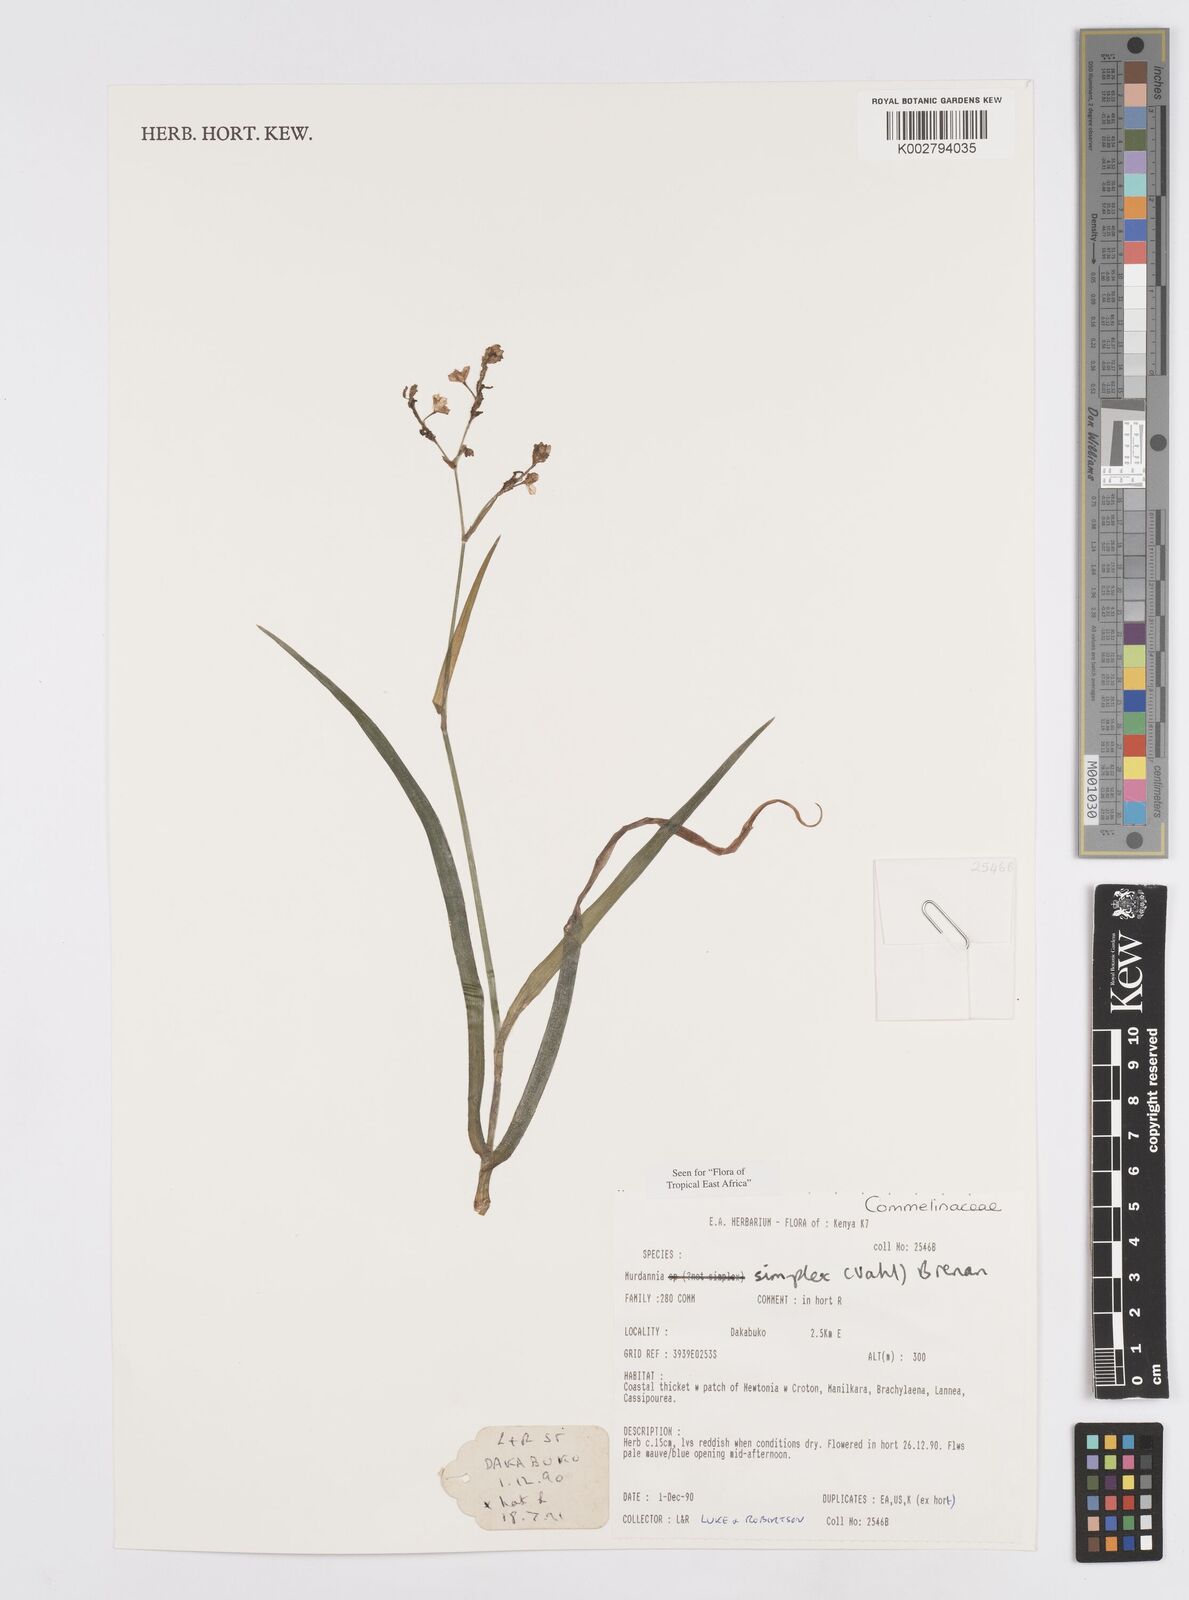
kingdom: Plantae
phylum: Tracheophyta
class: Liliopsida
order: Commelinales
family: Commelinaceae
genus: Murdannia
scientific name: Murdannia simplex
